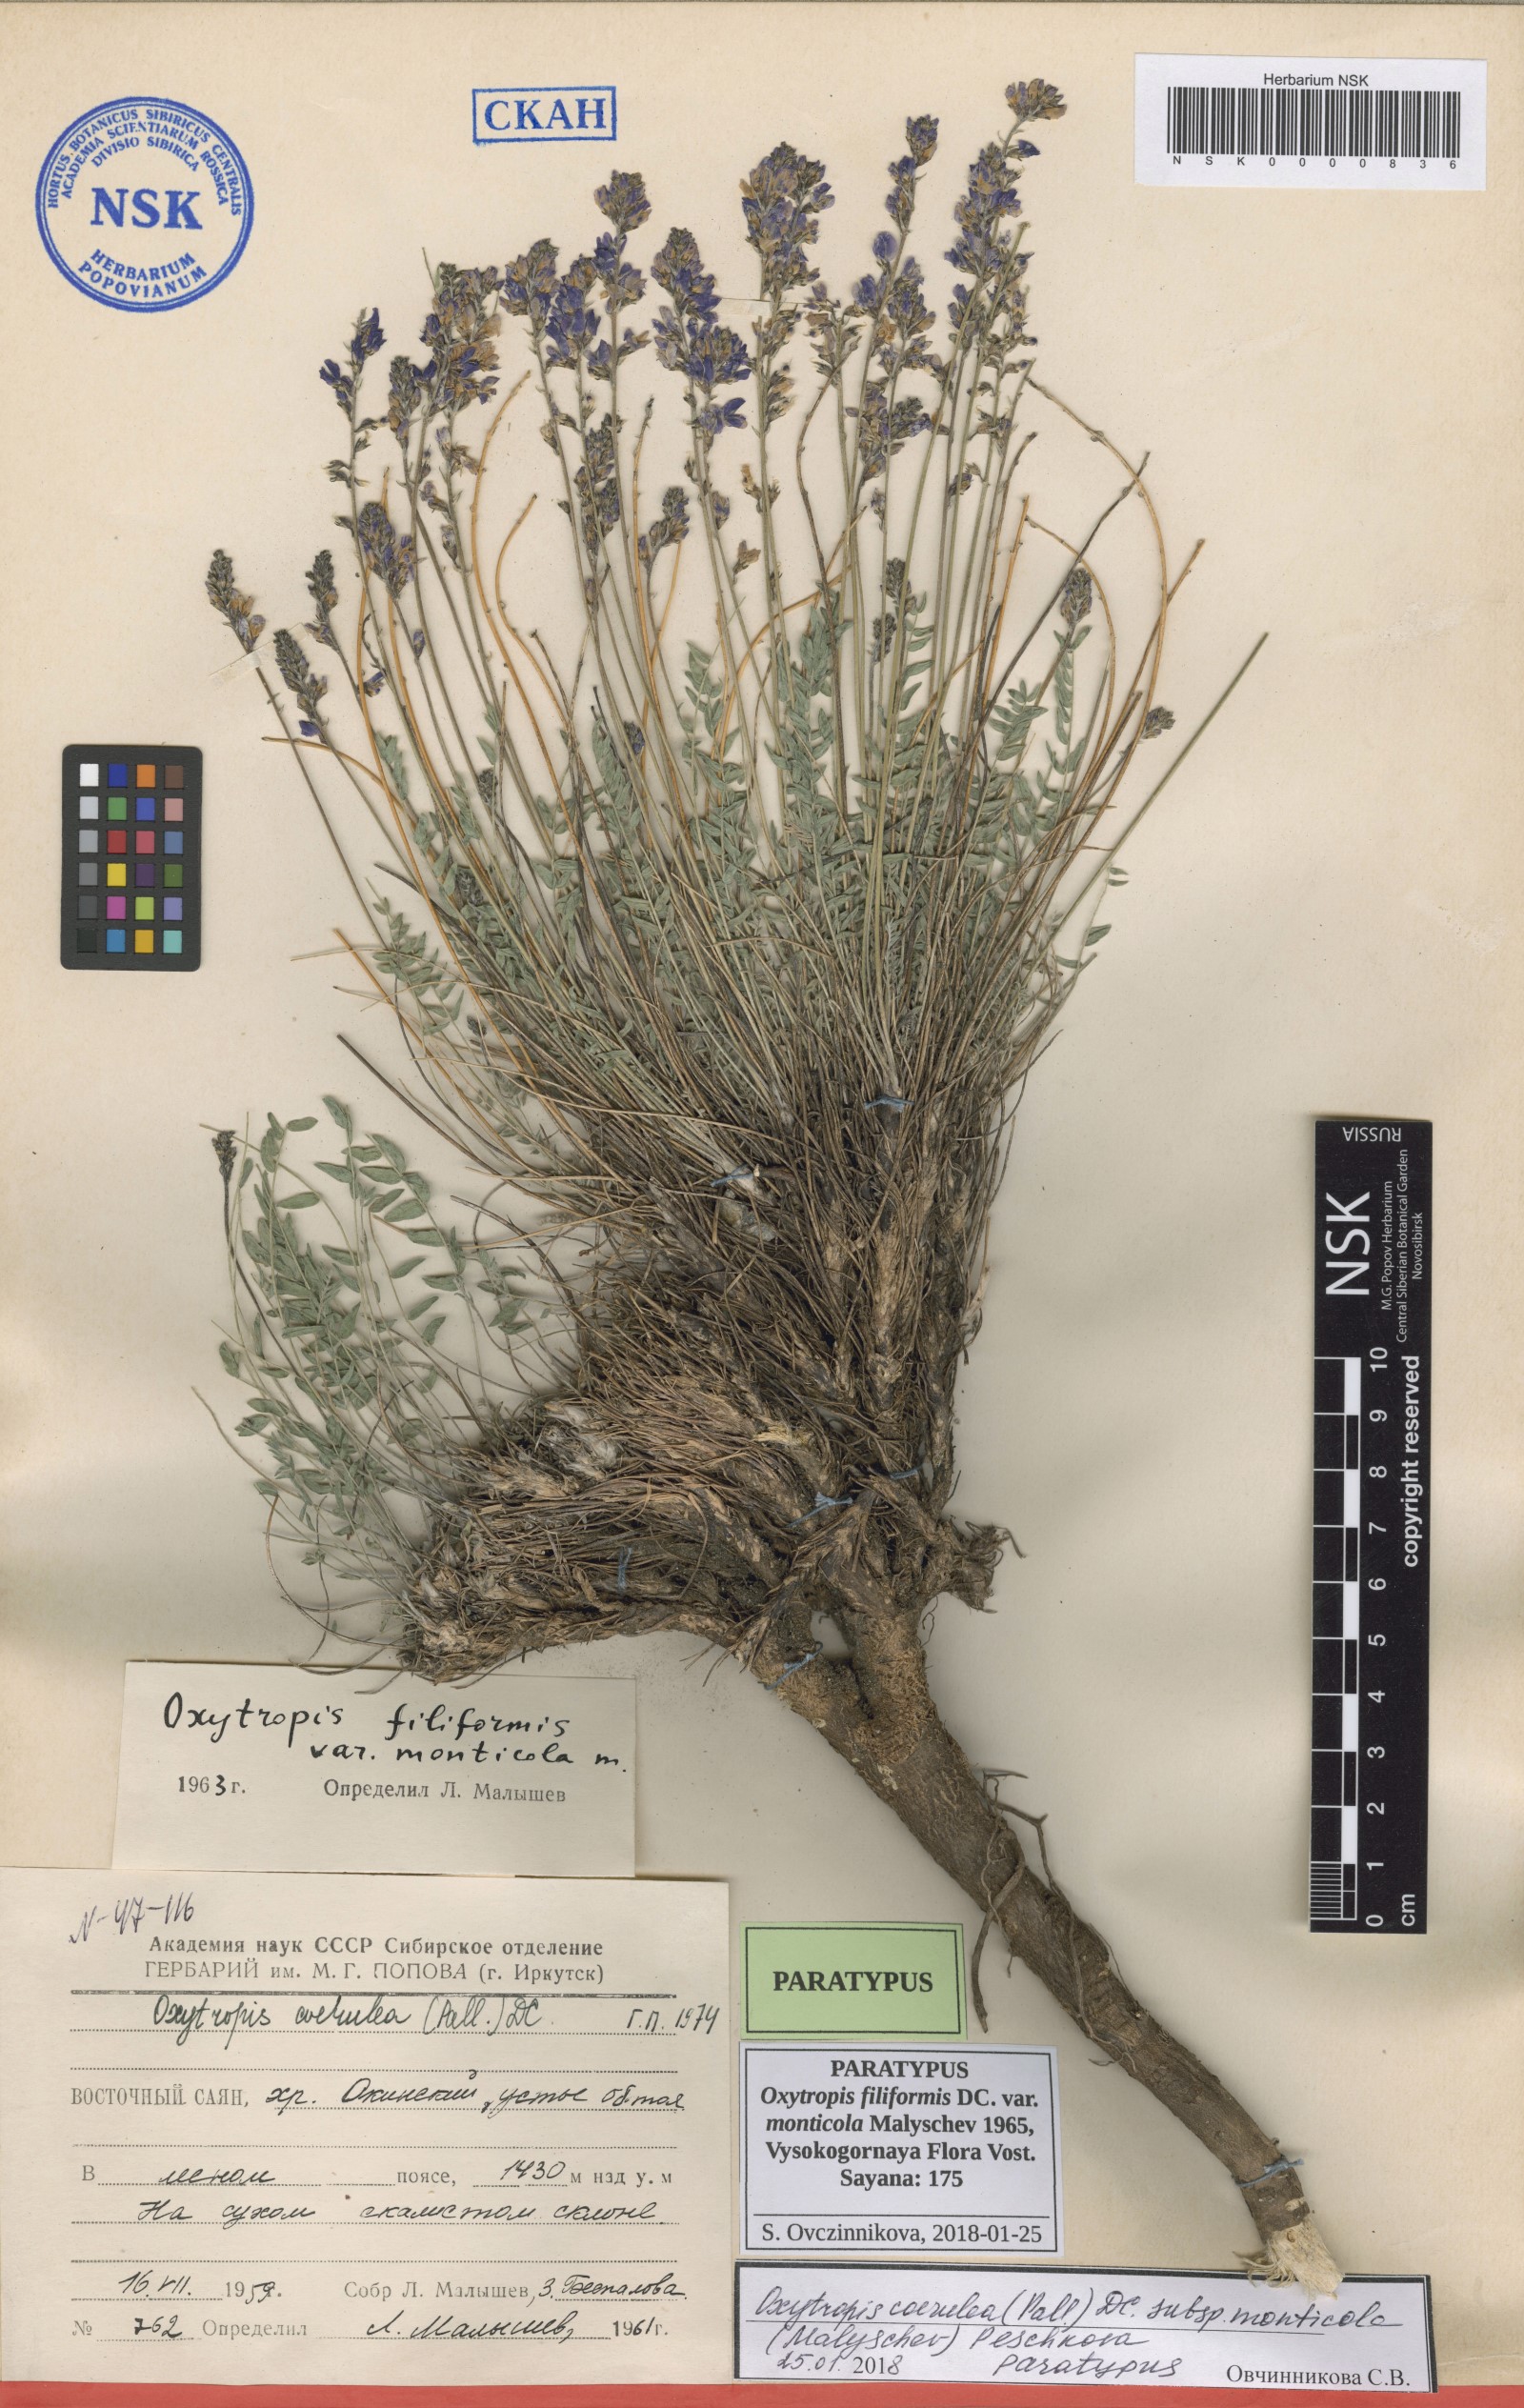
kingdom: Plantae
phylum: Tracheophyta
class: Magnoliopsida
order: Fabales
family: Fabaceae
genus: Oxytropis
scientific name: Oxytropis coerulea
